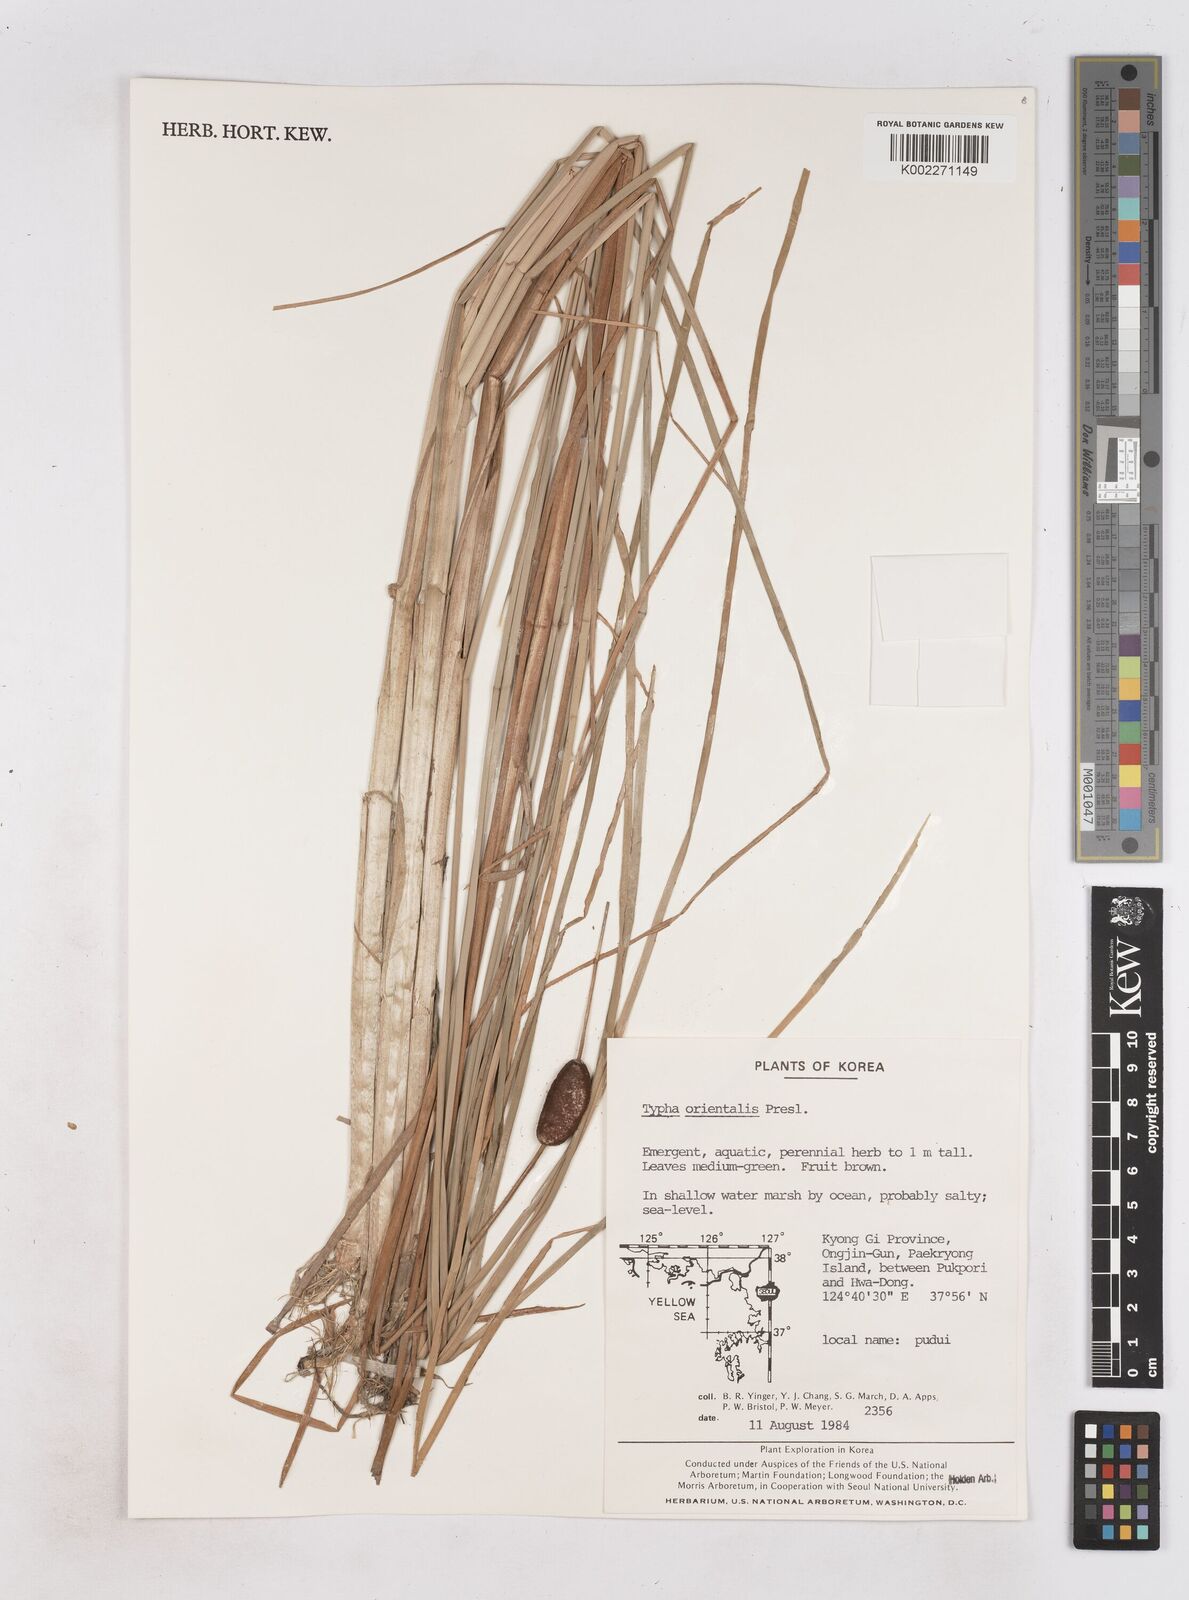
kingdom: Plantae
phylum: Tracheophyta
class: Liliopsida
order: Poales
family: Typhaceae
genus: Typha
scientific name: Typha
